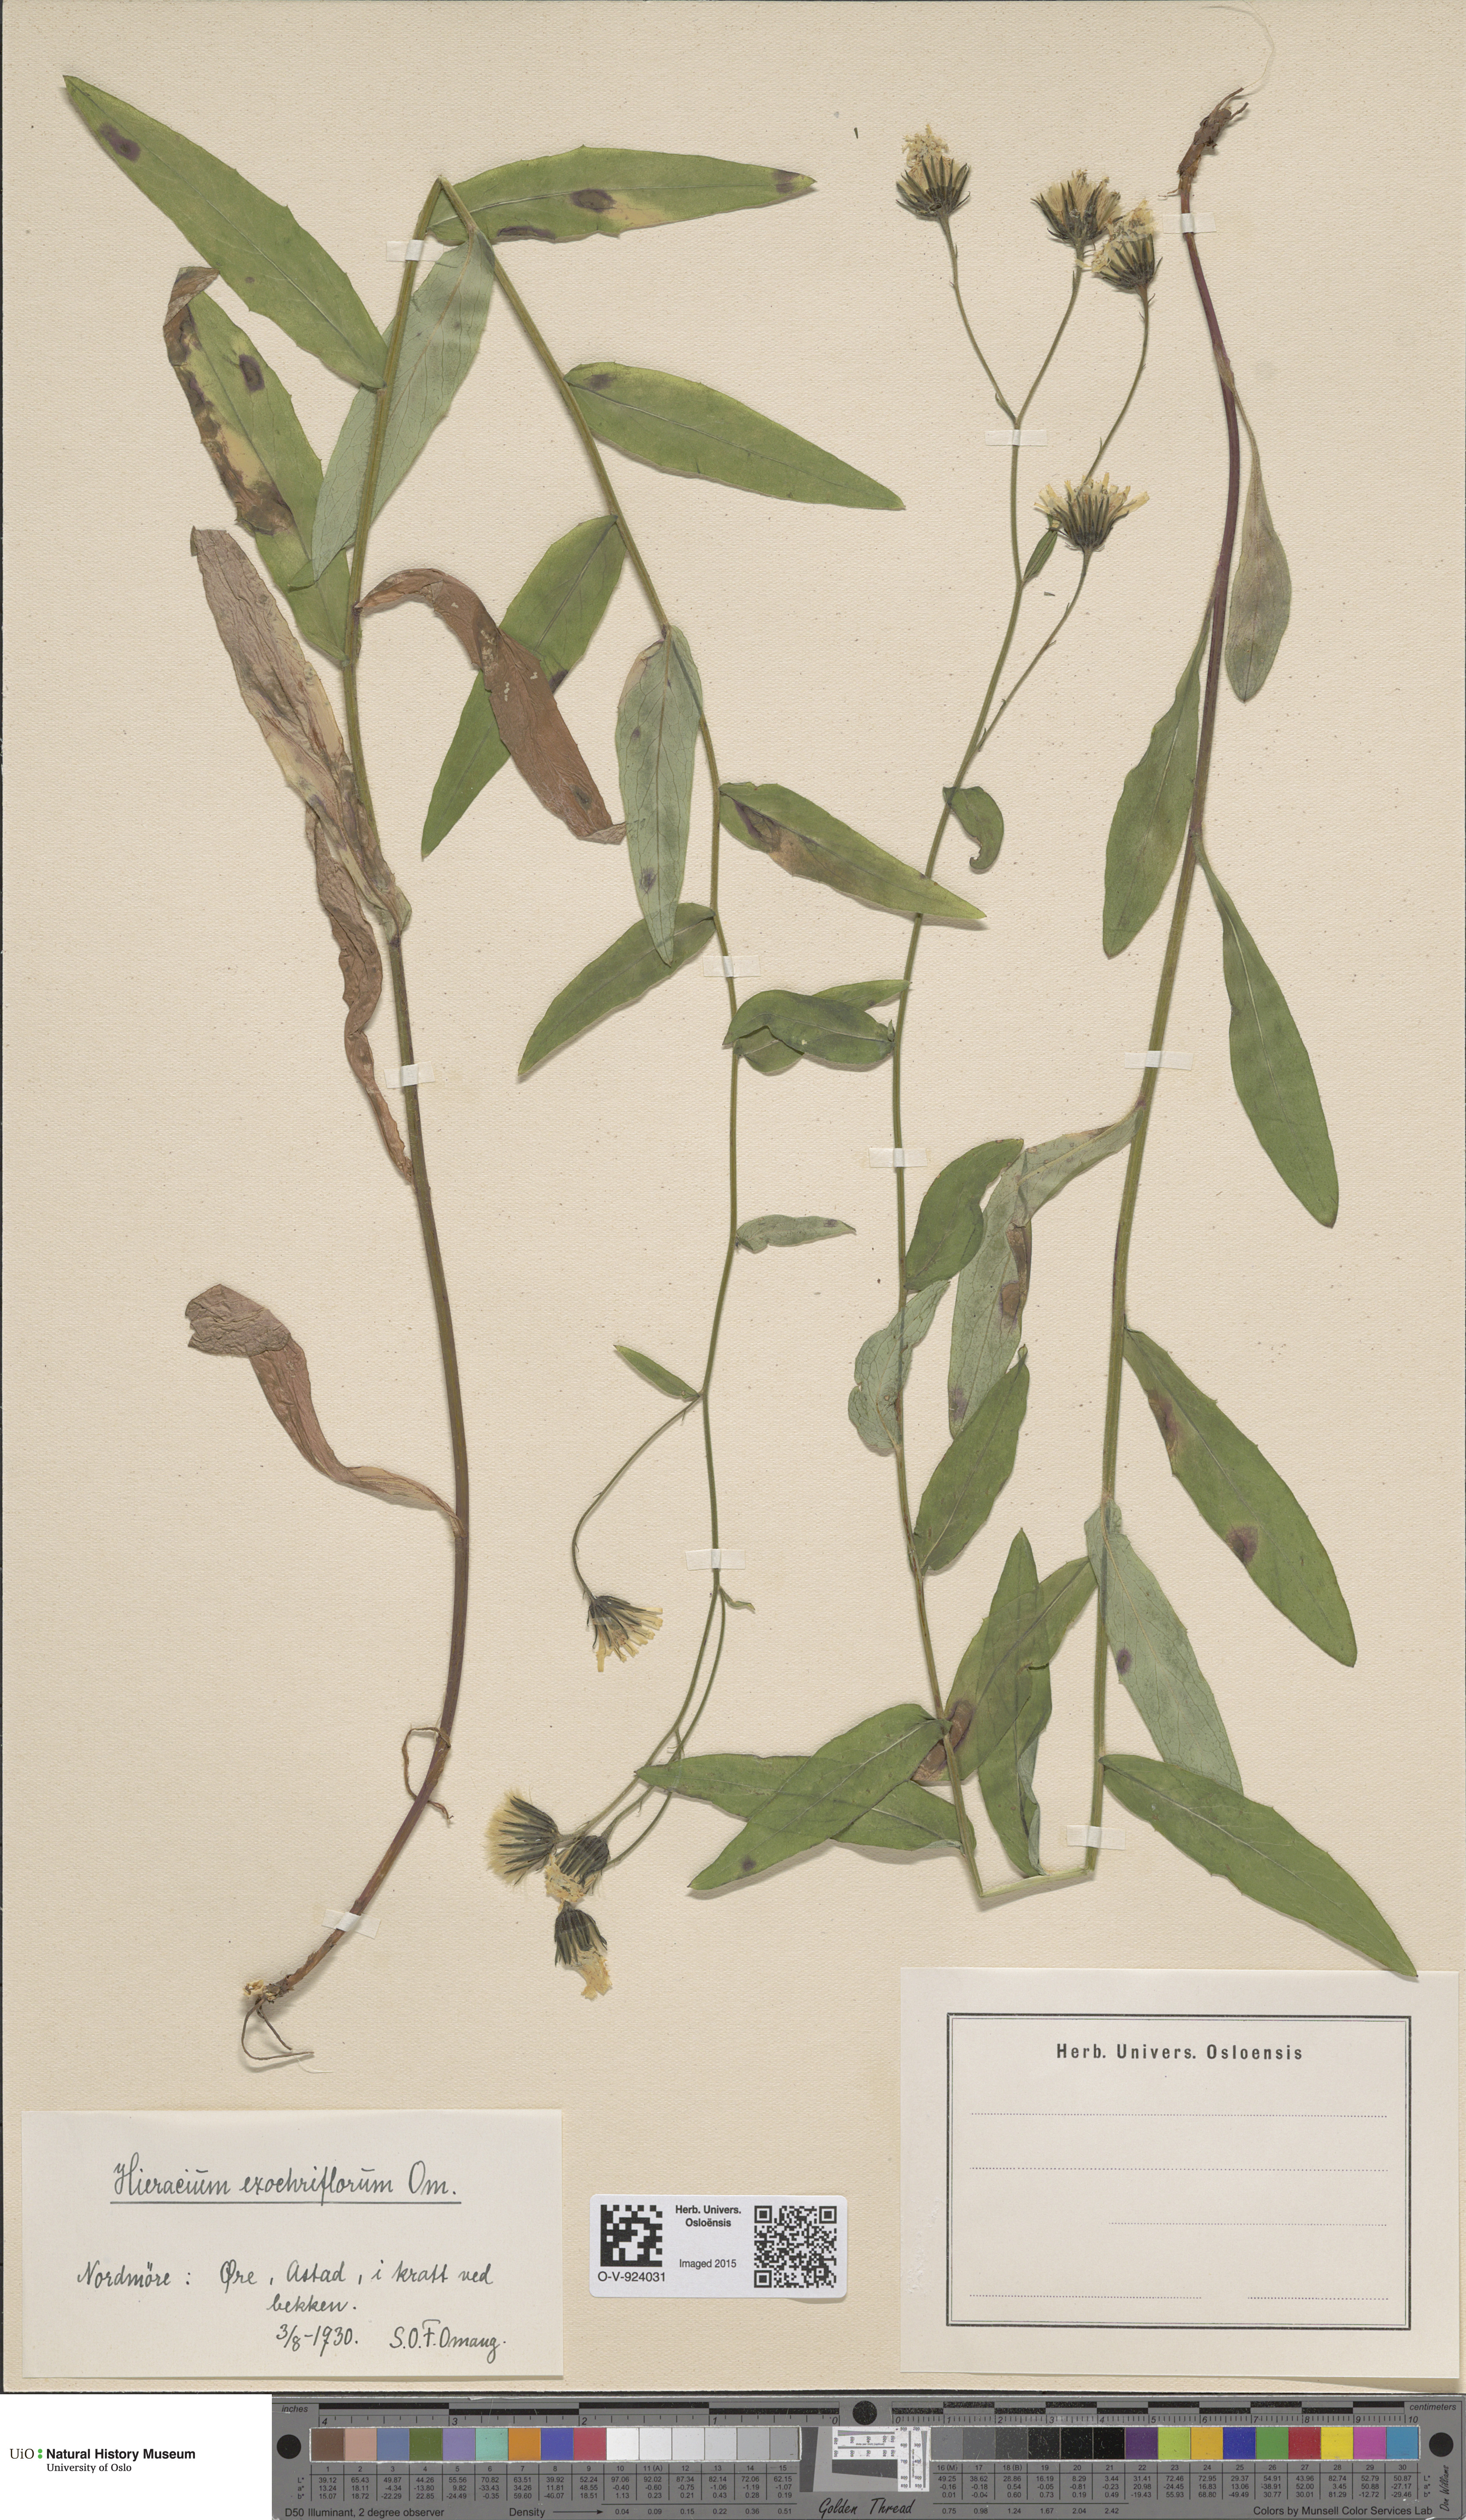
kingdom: Plantae
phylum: Tracheophyta
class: Magnoliopsida
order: Asterales
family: Asteraceae
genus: Hieracium
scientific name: Hieracium
